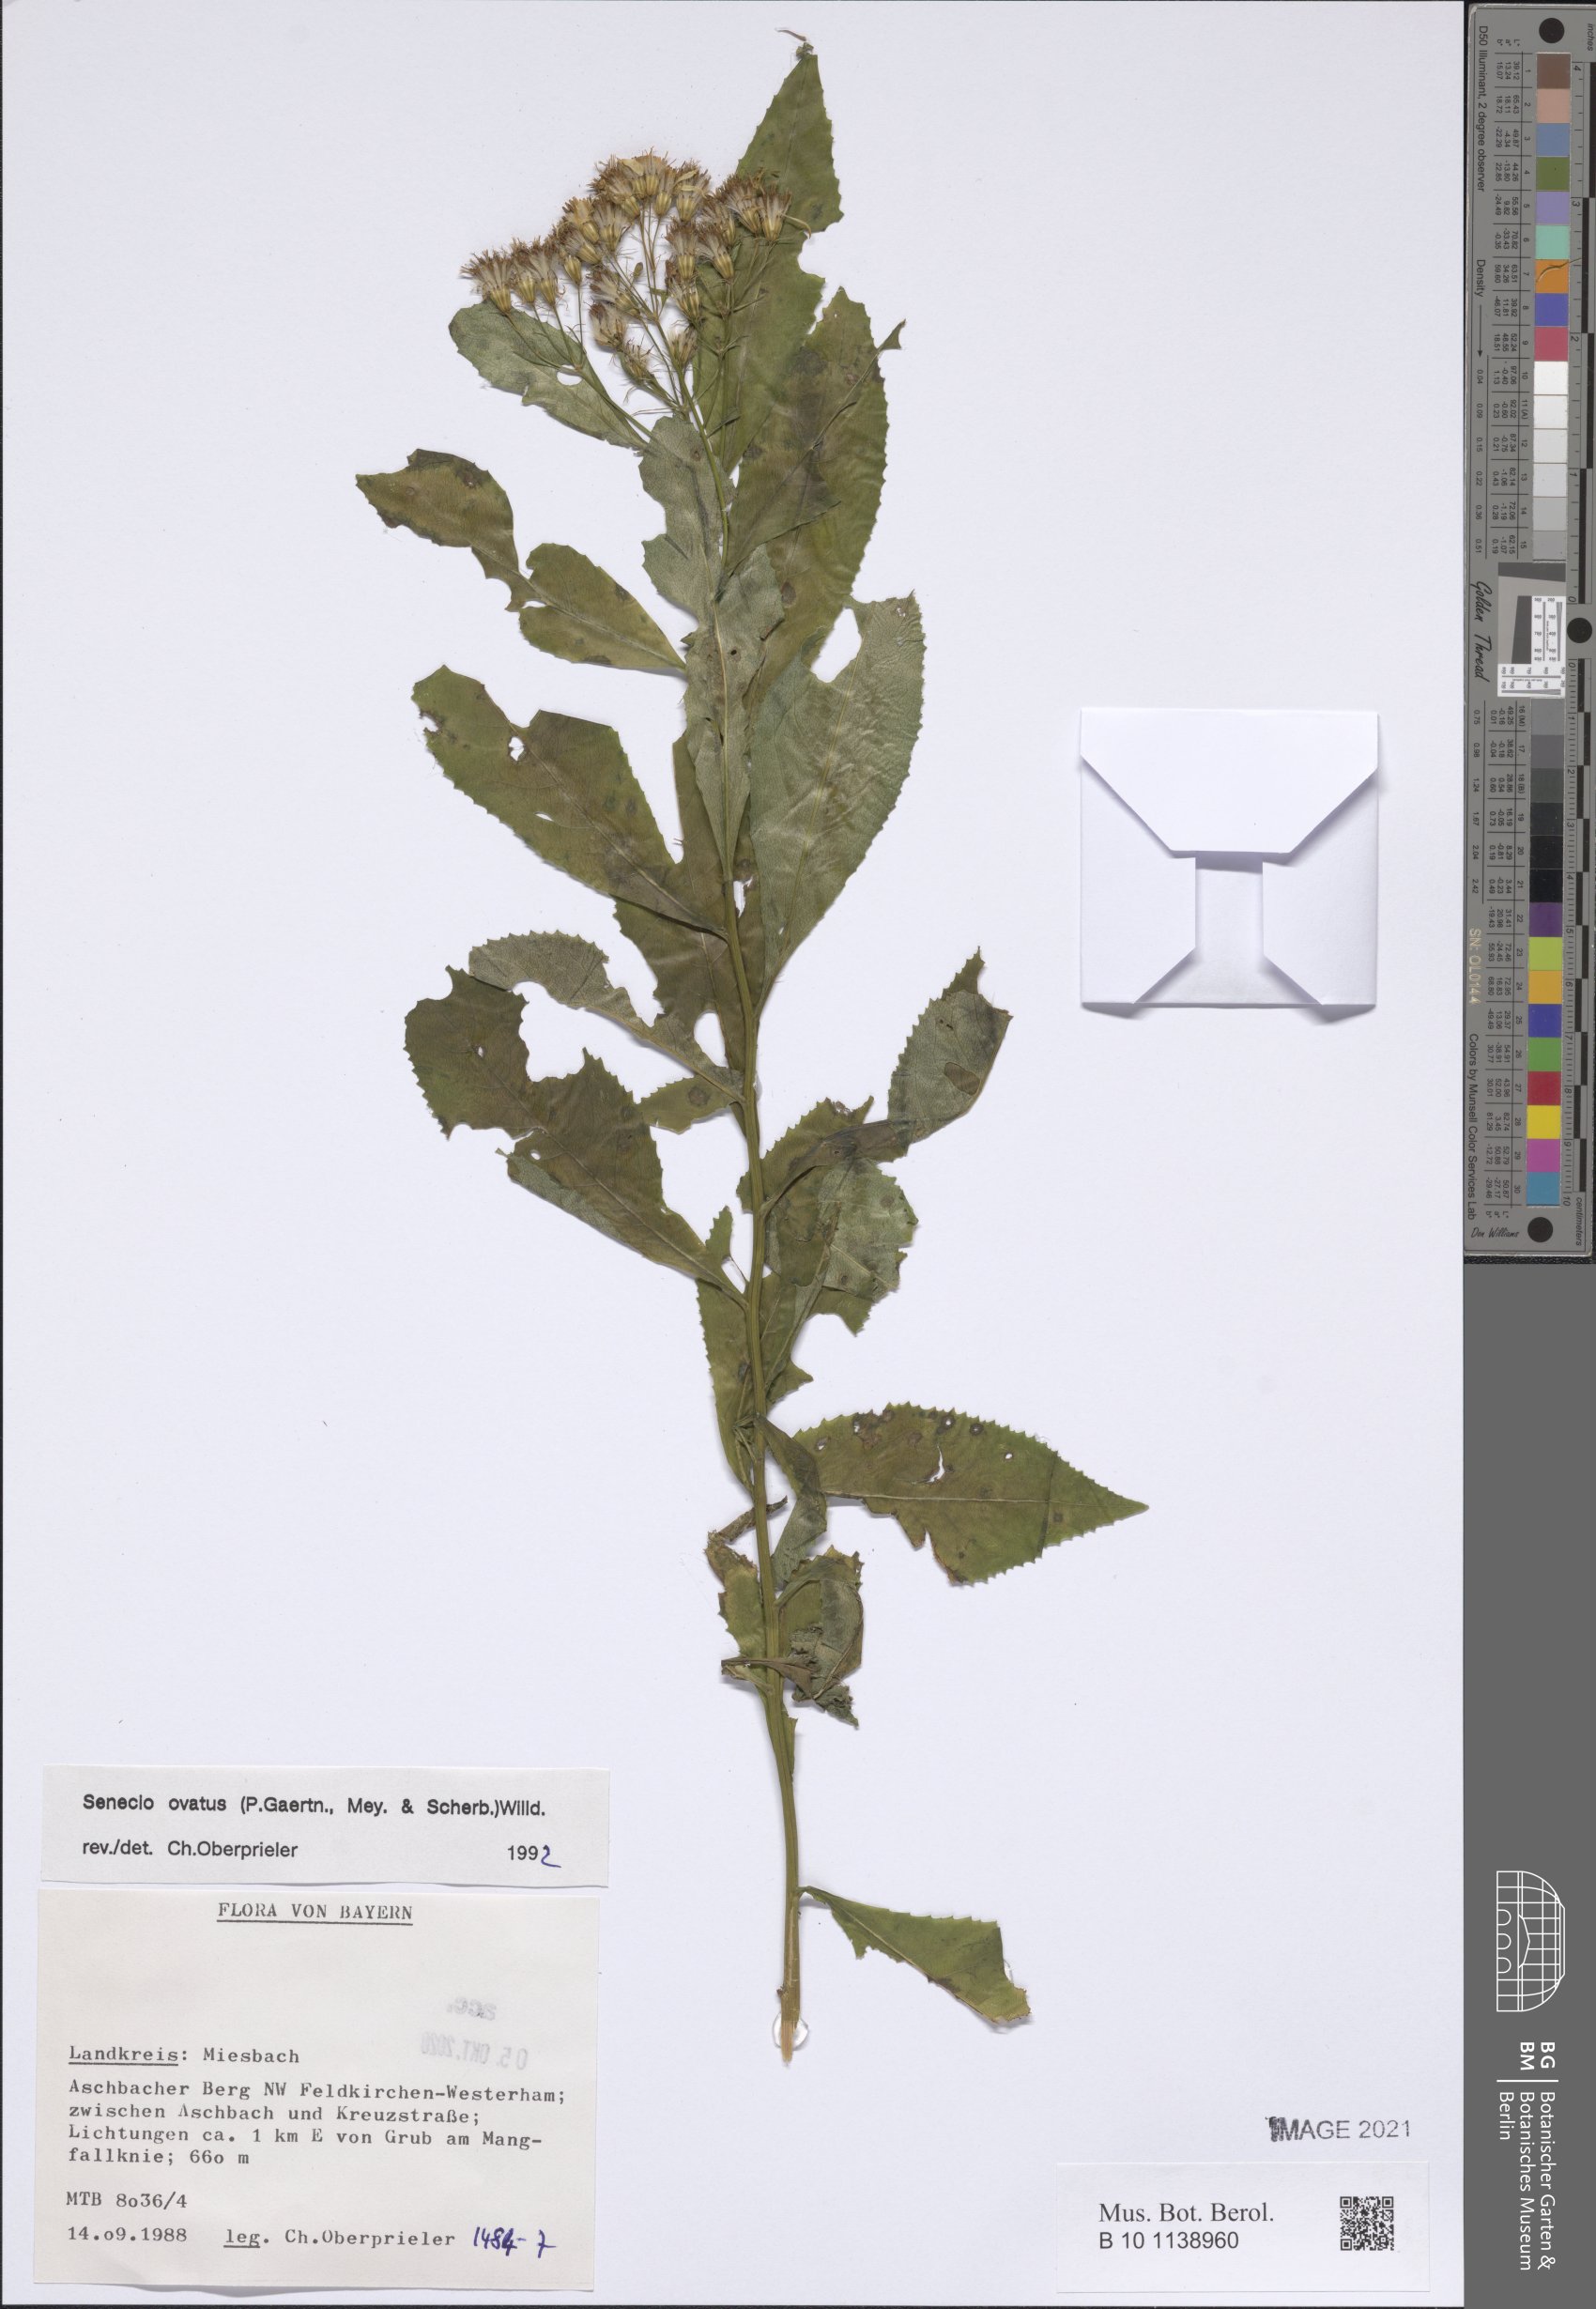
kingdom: Plantae
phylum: Tracheophyta
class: Magnoliopsida
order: Asterales
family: Asteraceae
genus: Senecio
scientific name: Senecio ovatus
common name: Wood ragwort
